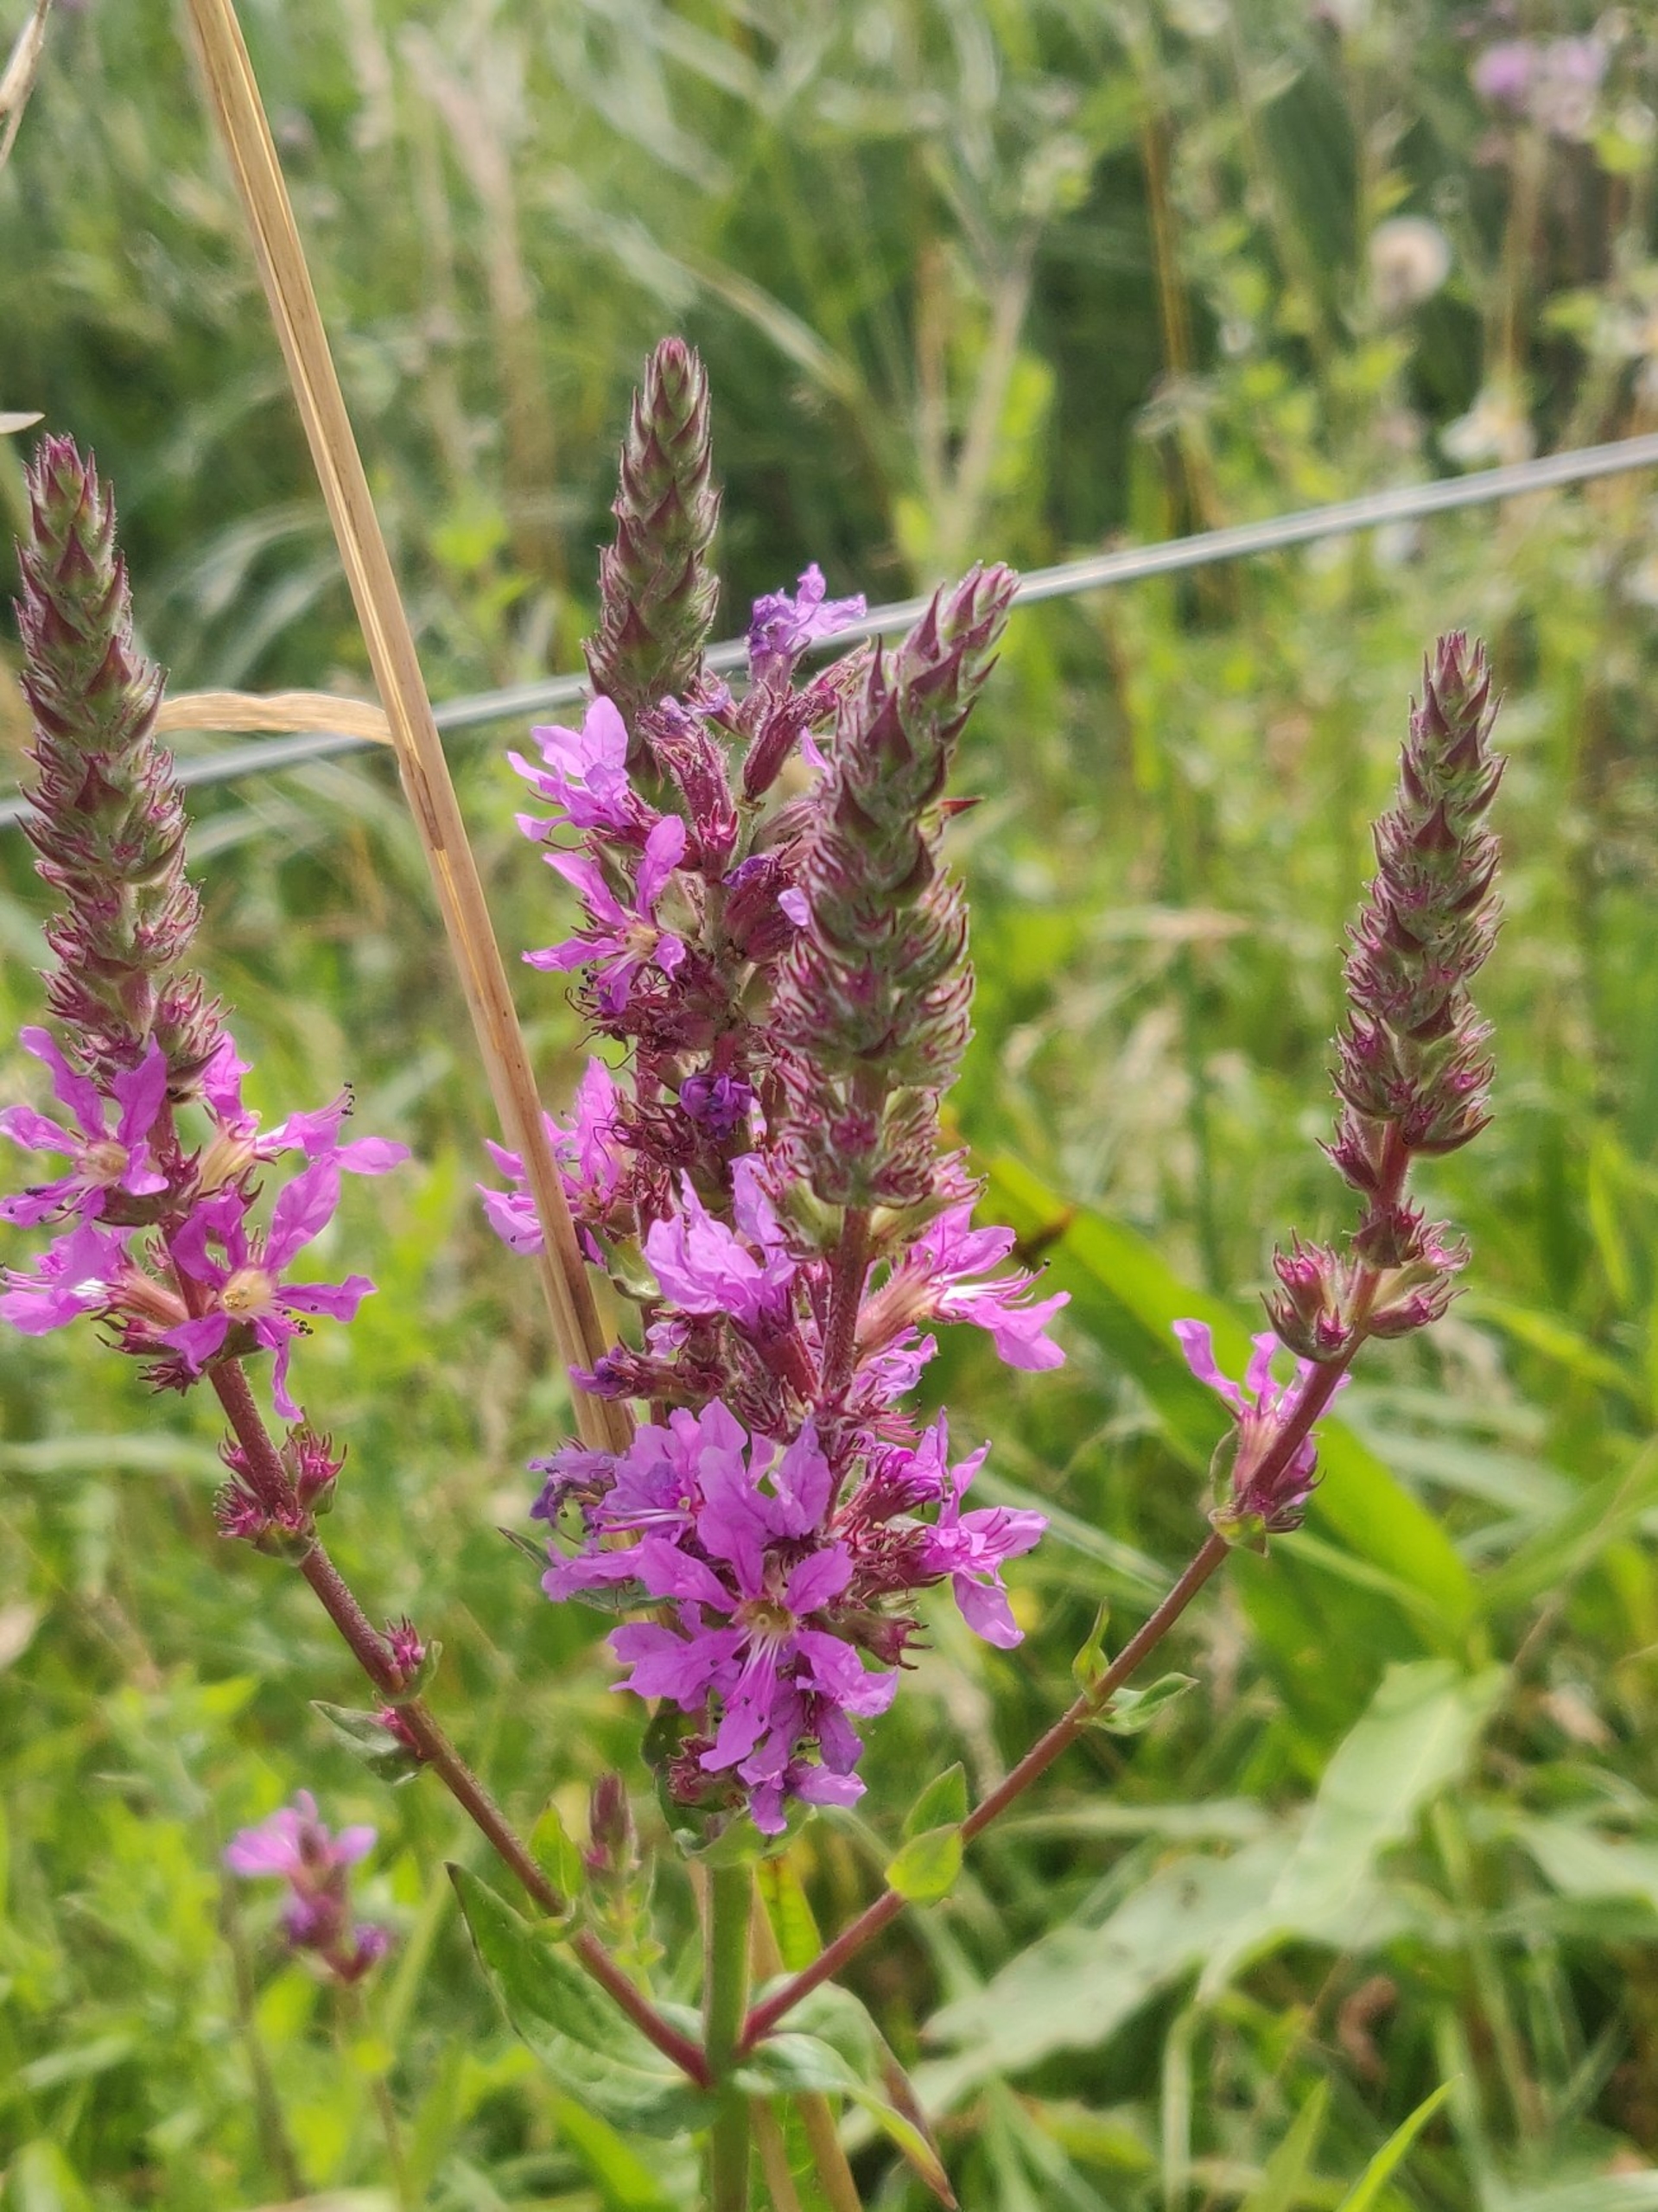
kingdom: Plantae
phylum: Tracheophyta
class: Magnoliopsida
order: Myrtales
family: Lythraceae
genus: Lythrum
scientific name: Lythrum salicaria
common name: Kattehale
